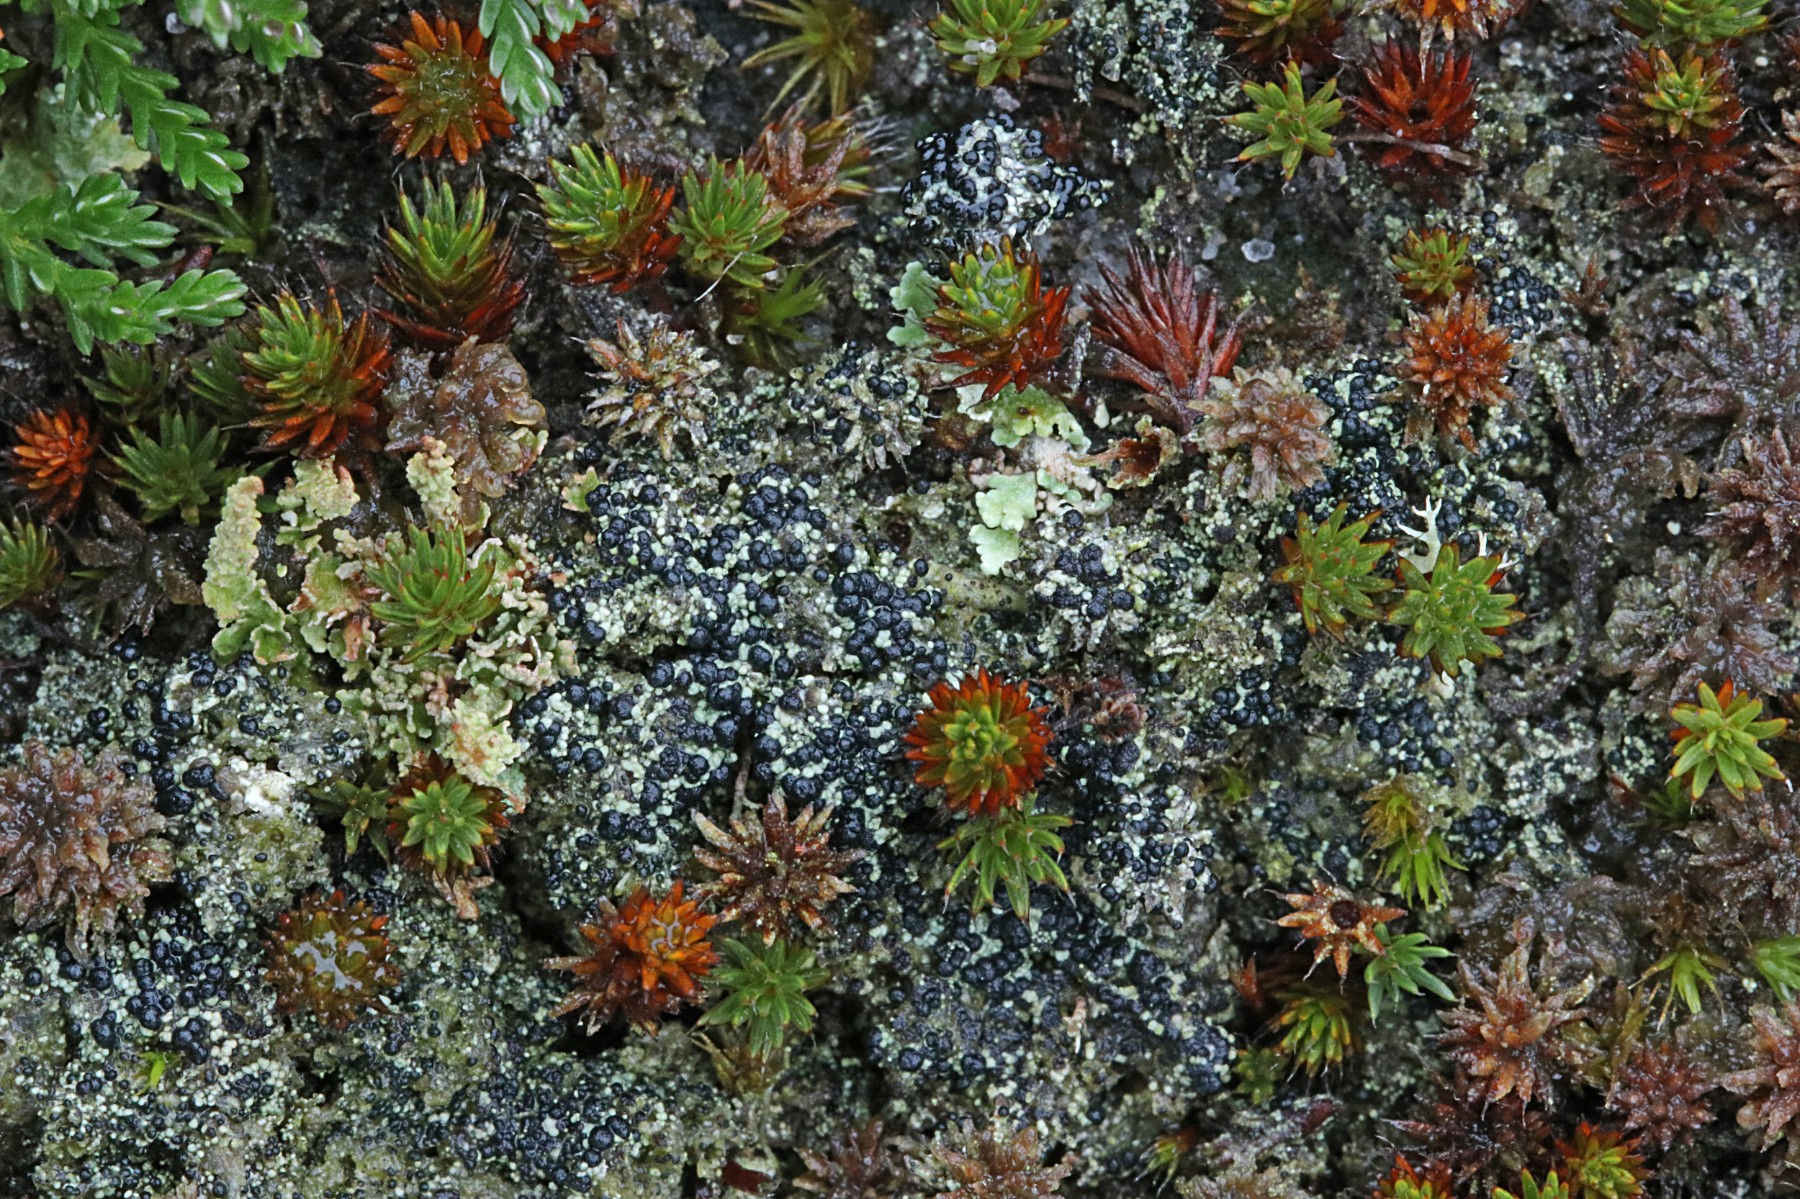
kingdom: Fungi
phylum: Ascomycota
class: Lecanoromycetes
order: Lecanorales
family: Byssolomataceae
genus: Micarea
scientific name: Micarea lignaria
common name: tørve-knaplav
